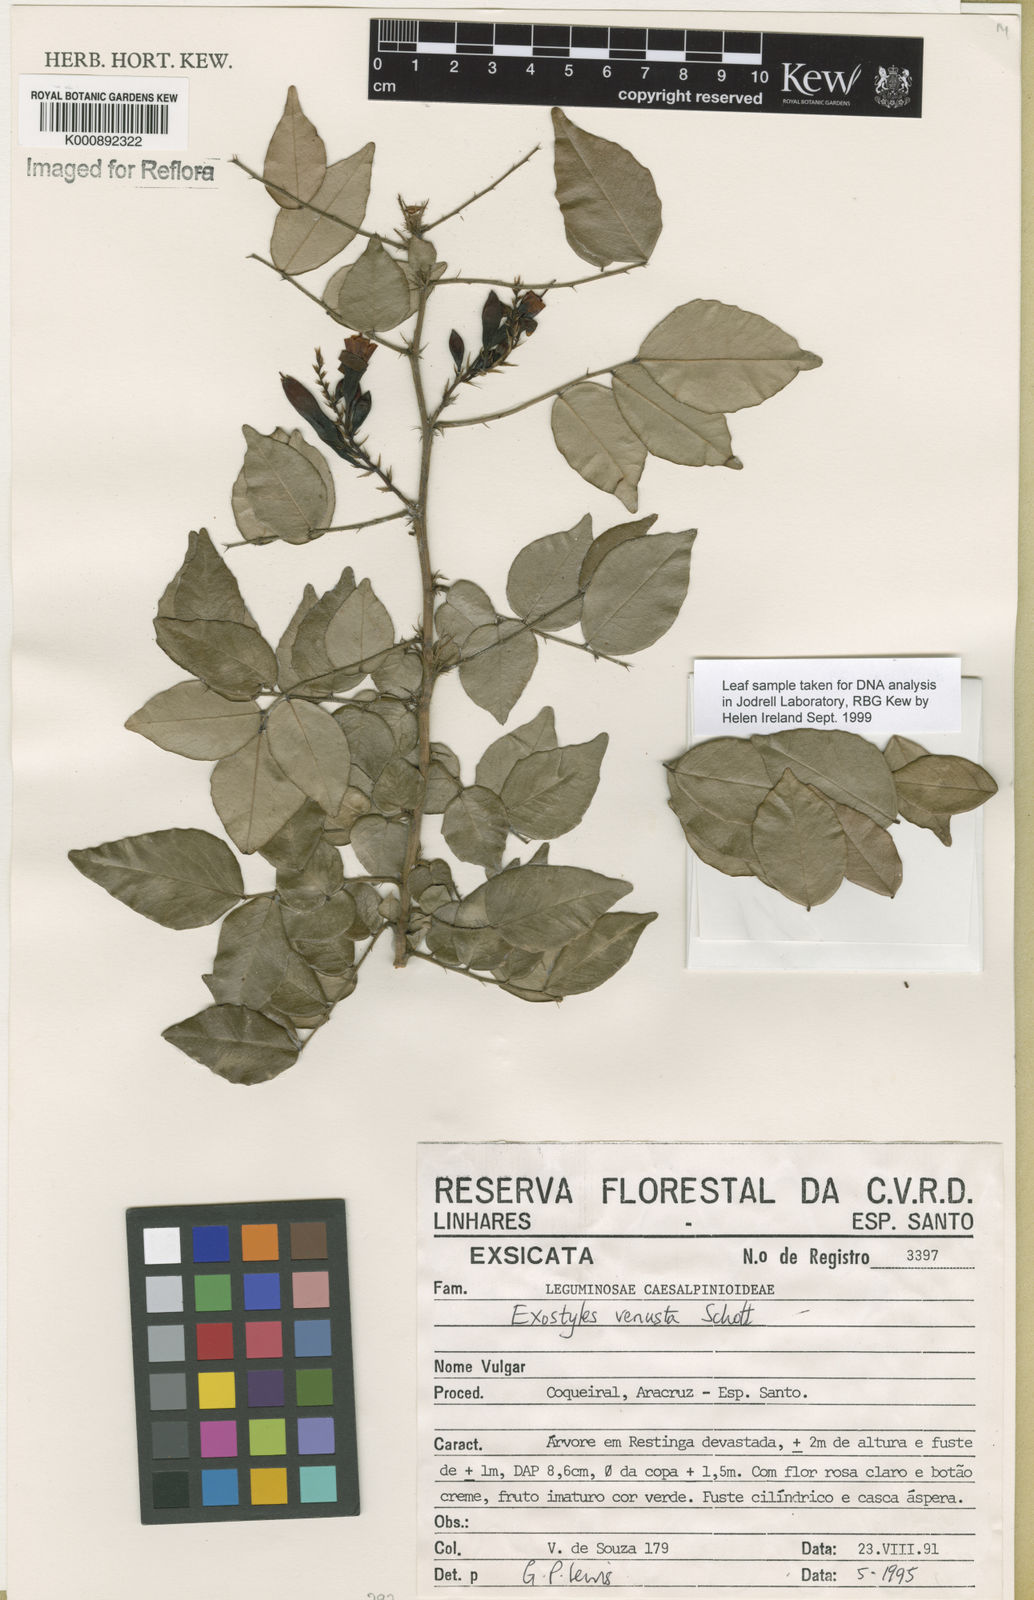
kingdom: Plantae
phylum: Tracheophyta
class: Magnoliopsida
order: Fabales
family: Fabaceae
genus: Exostyles
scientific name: Exostyles venusta
